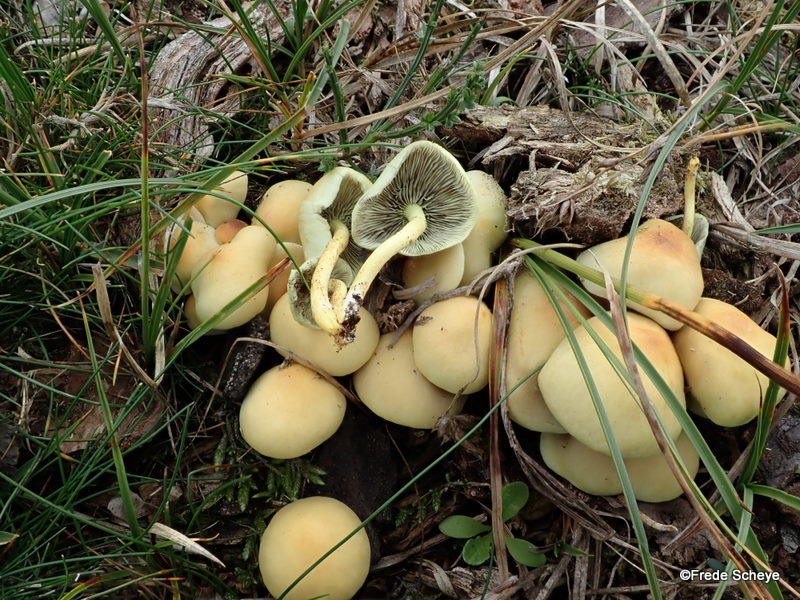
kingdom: Fungi
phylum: Basidiomycota
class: Agaricomycetes
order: Agaricales
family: Strophariaceae
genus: Hypholoma
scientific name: Hypholoma fasciculare
